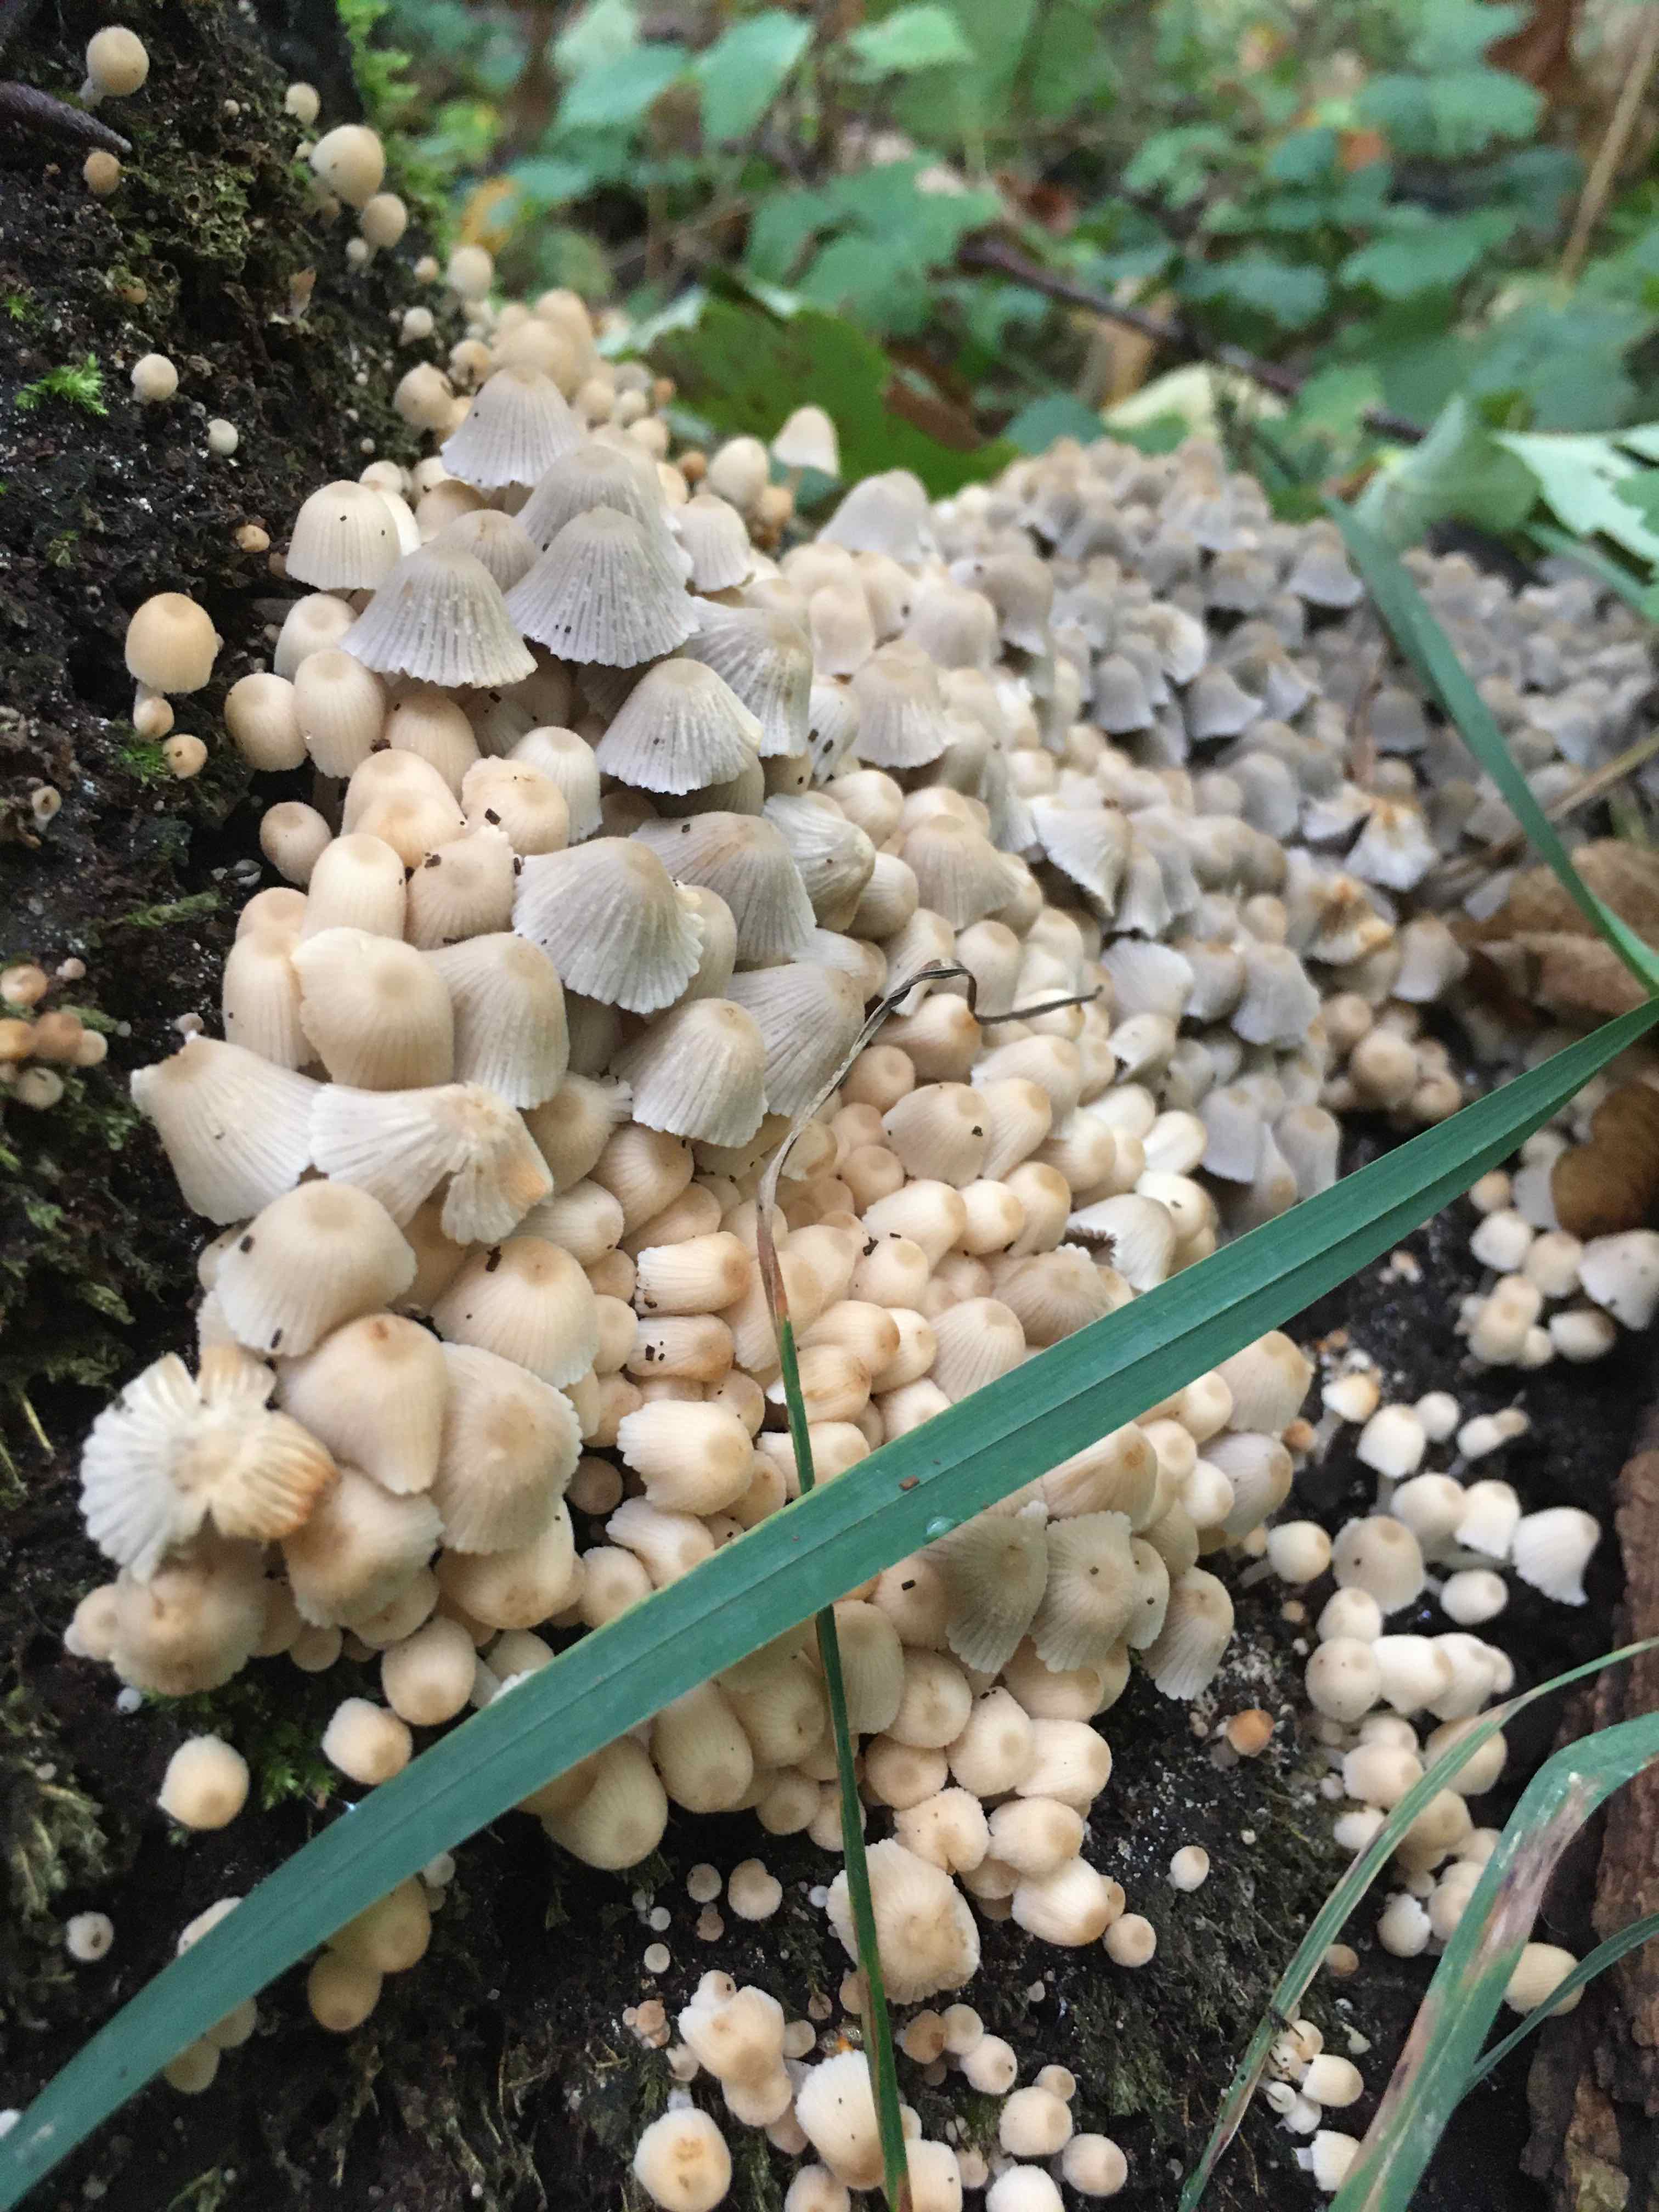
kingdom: Fungi
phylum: Basidiomycota
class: Agaricomycetes
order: Agaricales
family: Psathyrellaceae
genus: Coprinellus
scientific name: Coprinellus disseminatus
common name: bredsået blækhat
